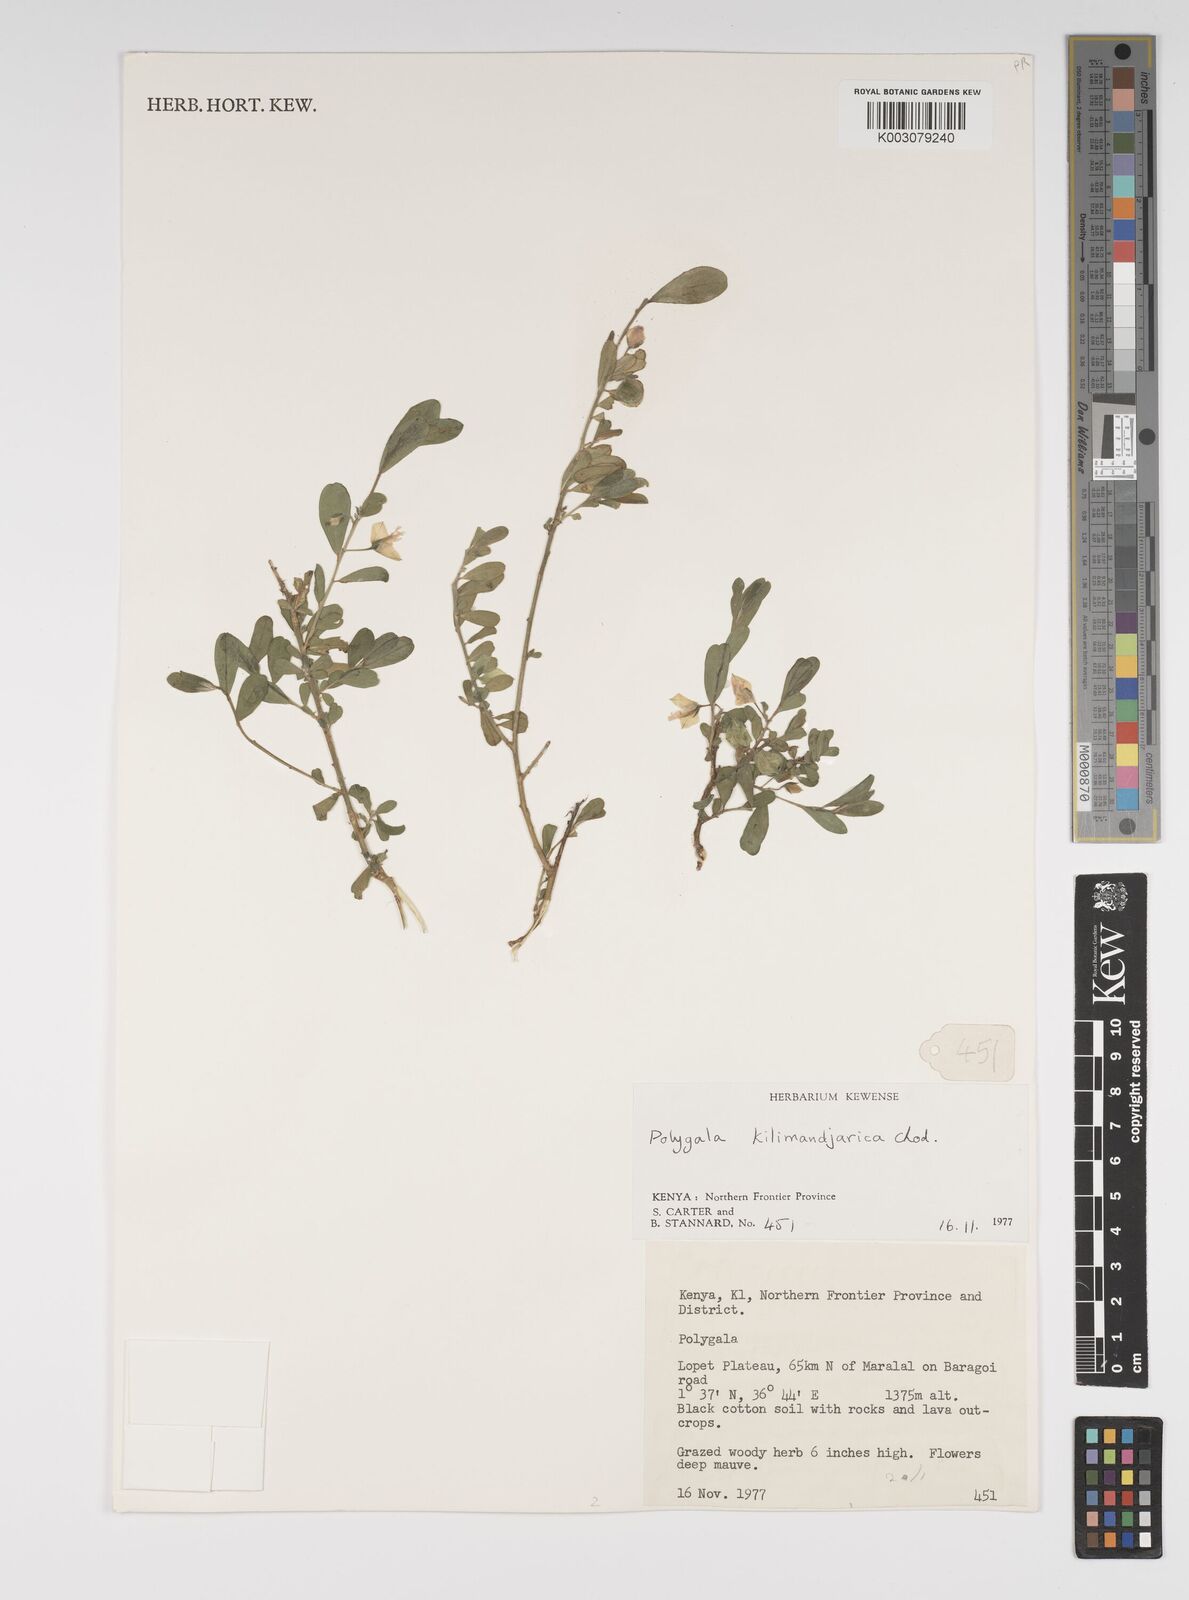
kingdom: Plantae
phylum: Tracheophyta
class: Magnoliopsida
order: Fabales
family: Polygalaceae
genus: Polygala
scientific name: Polygala kilimandjarica
